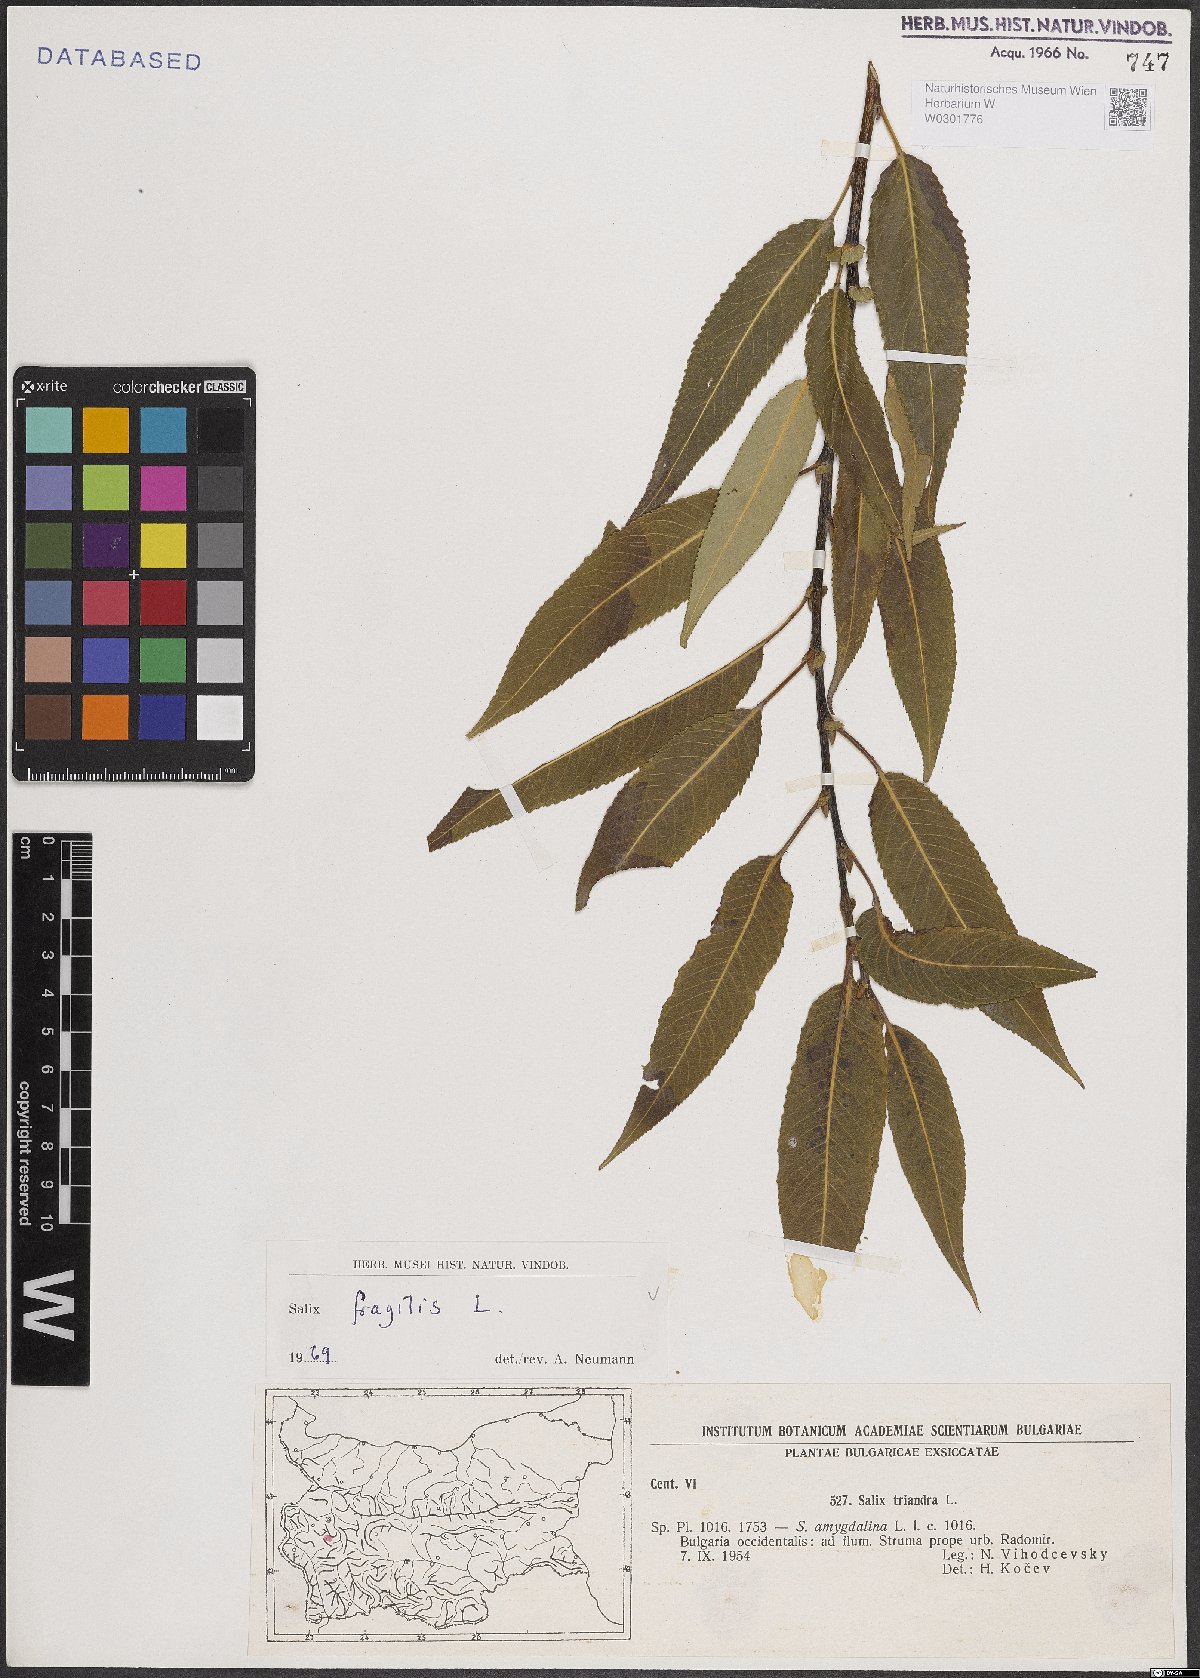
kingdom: Plantae
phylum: Tracheophyta
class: Magnoliopsida
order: Malpighiales
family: Salicaceae
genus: Salix
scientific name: Salix fragilis
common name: Crack willow
